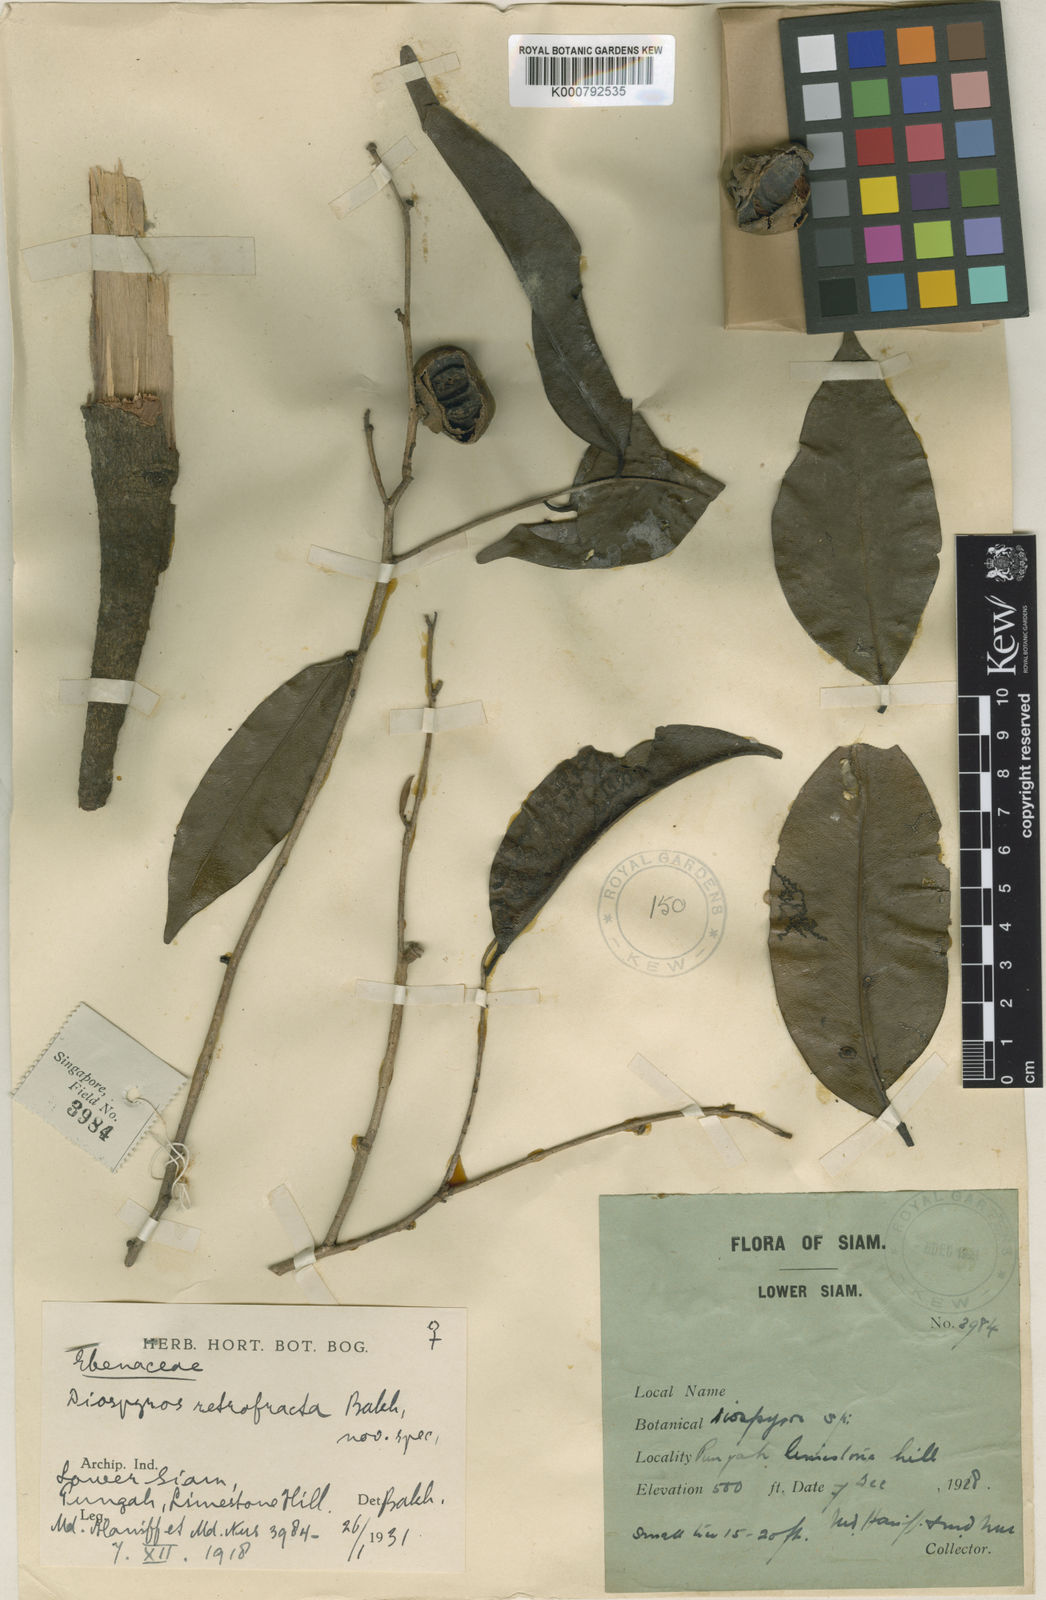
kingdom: Plantae
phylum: Tracheophyta
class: Magnoliopsida
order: Ericales
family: Ebenaceae
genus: Diospyros
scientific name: Diospyros bejaudii
